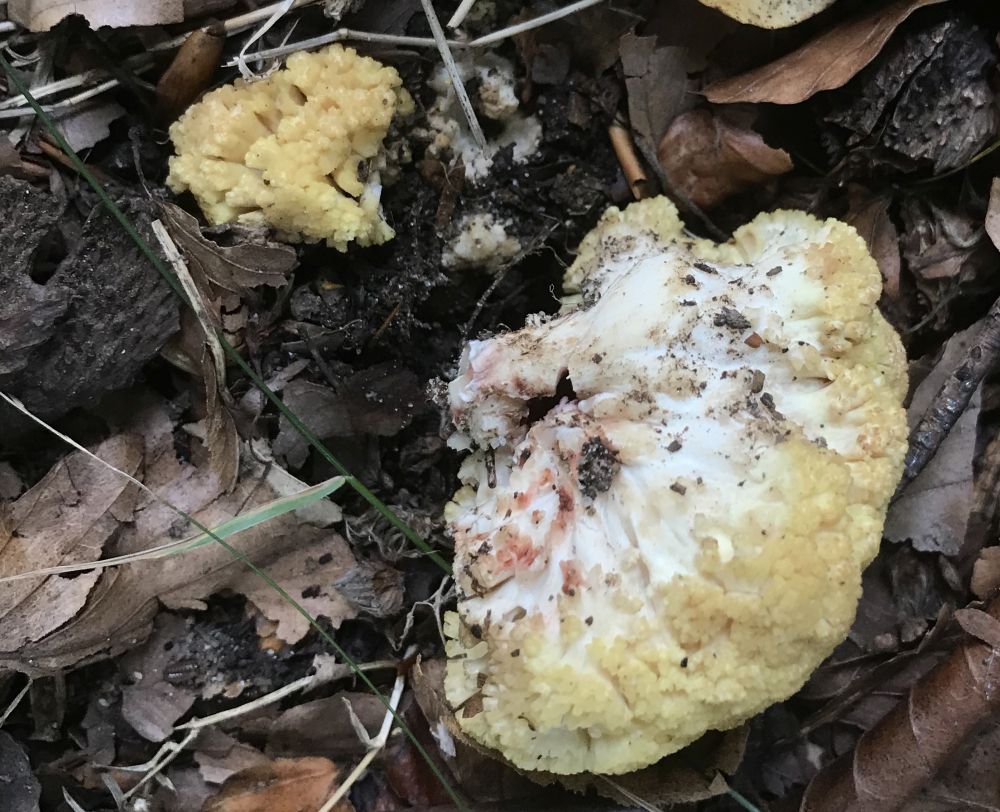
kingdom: Fungi
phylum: Basidiomycota
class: Agaricomycetes
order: Gomphales
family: Gomphaceae
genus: Ramaria
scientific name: Ramaria sanguinea
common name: blodplettet koralsvamp
